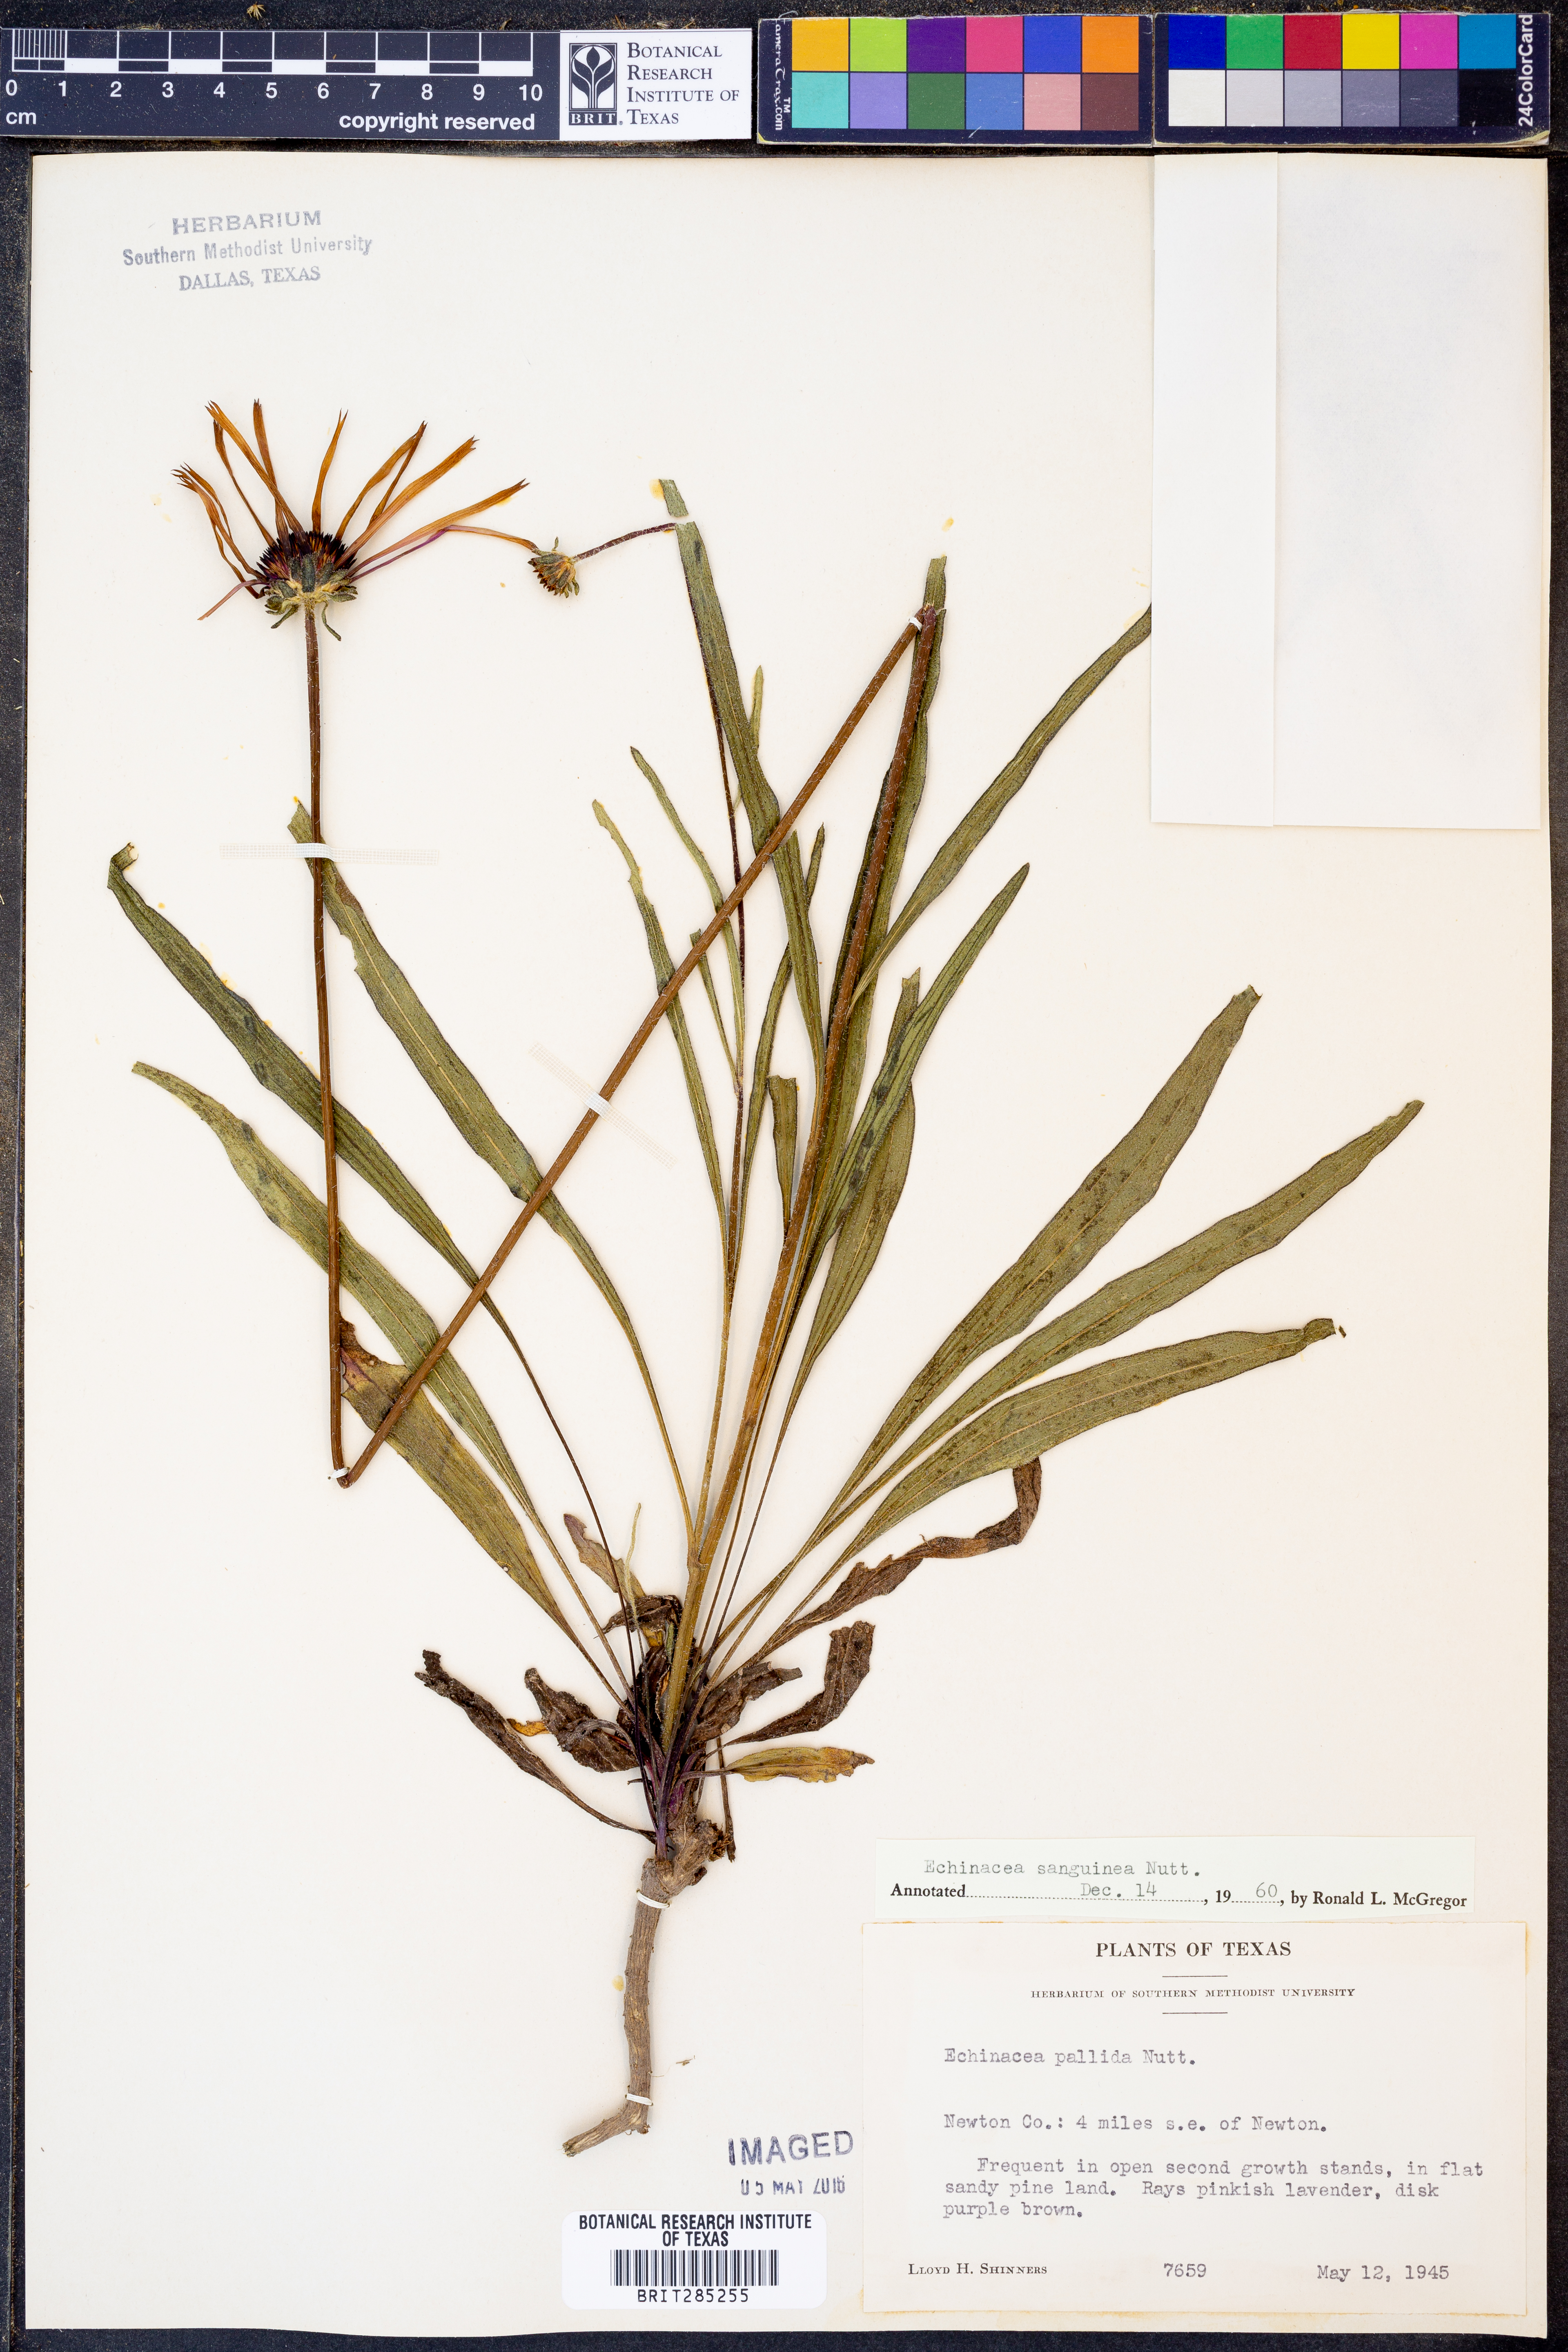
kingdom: Plantae
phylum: Tracheophyta
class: Magnoliopsida
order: Asterales
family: Asteraceae
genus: Echinacea
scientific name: Echinacea sanguinea
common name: Sanguine purple-coneflower
